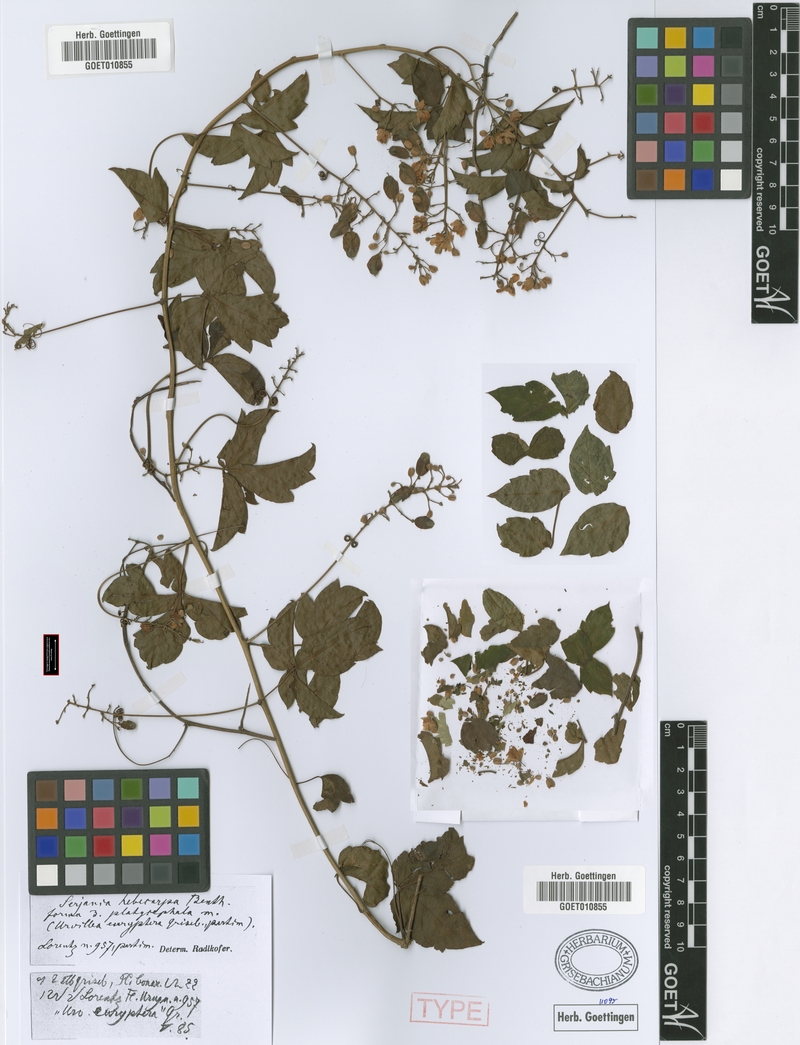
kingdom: Plantae
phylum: Tracheophyta
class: Magnoliopsida
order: Sapindales
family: Sapindaceae
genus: Serjania
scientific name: Serjania hebecarpa
